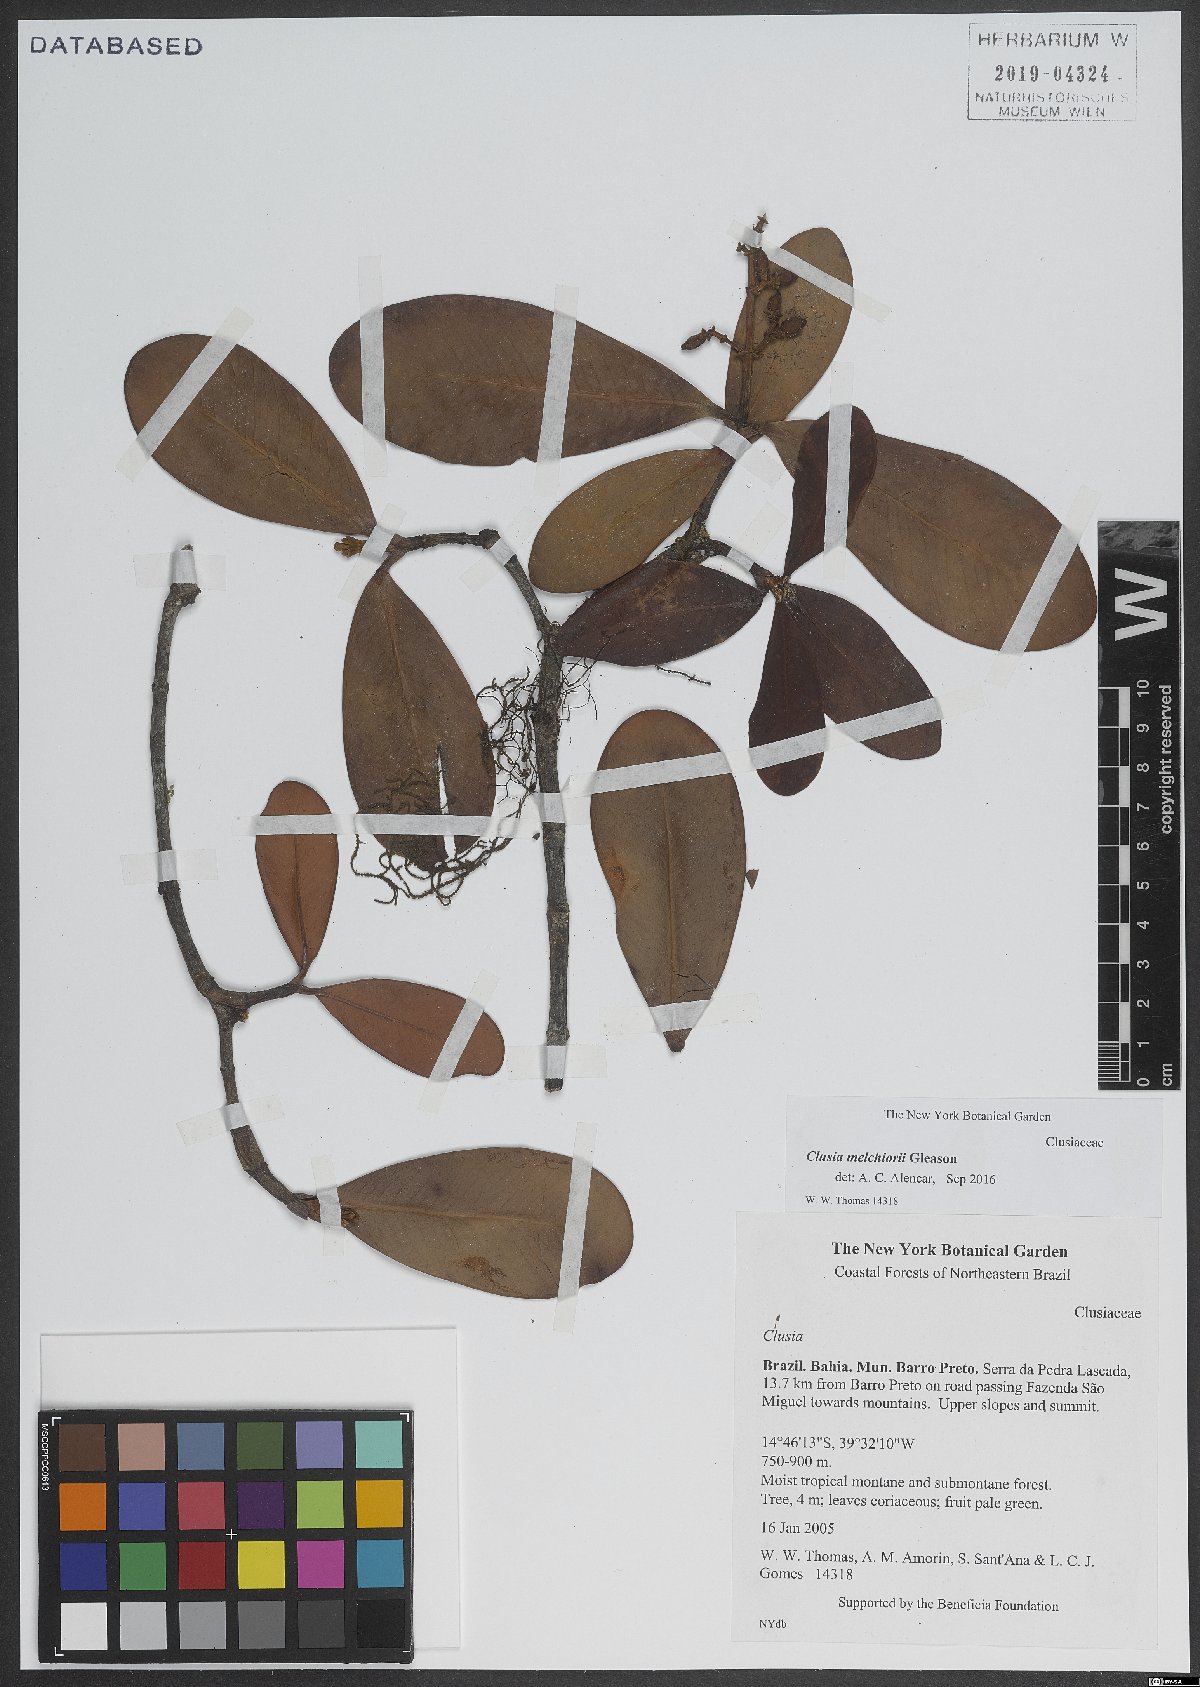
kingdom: Plantae
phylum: Tracheophyta
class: Magnoliopsida
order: Malpighiales
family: Clusiaceae
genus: Clusia
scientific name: Clusia melchiorii
